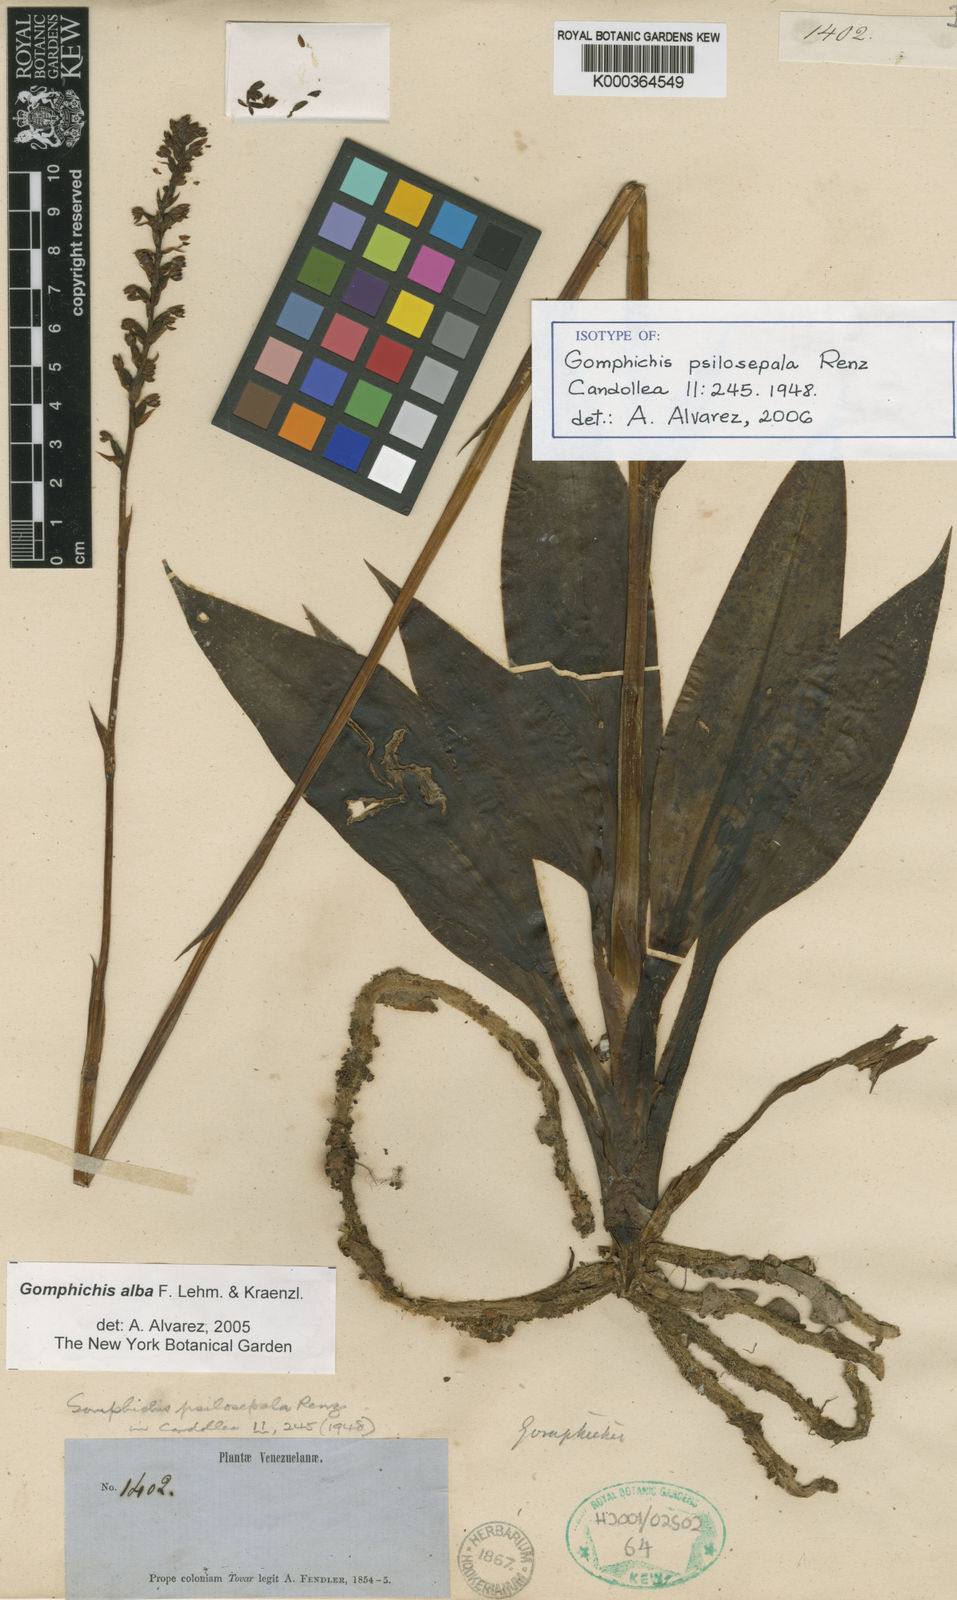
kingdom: Plantae
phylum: Tracheophyta
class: Liliopsida
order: Asparagales
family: Orchidaceae
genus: Gomphichis
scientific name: Gomphichis viscosa
